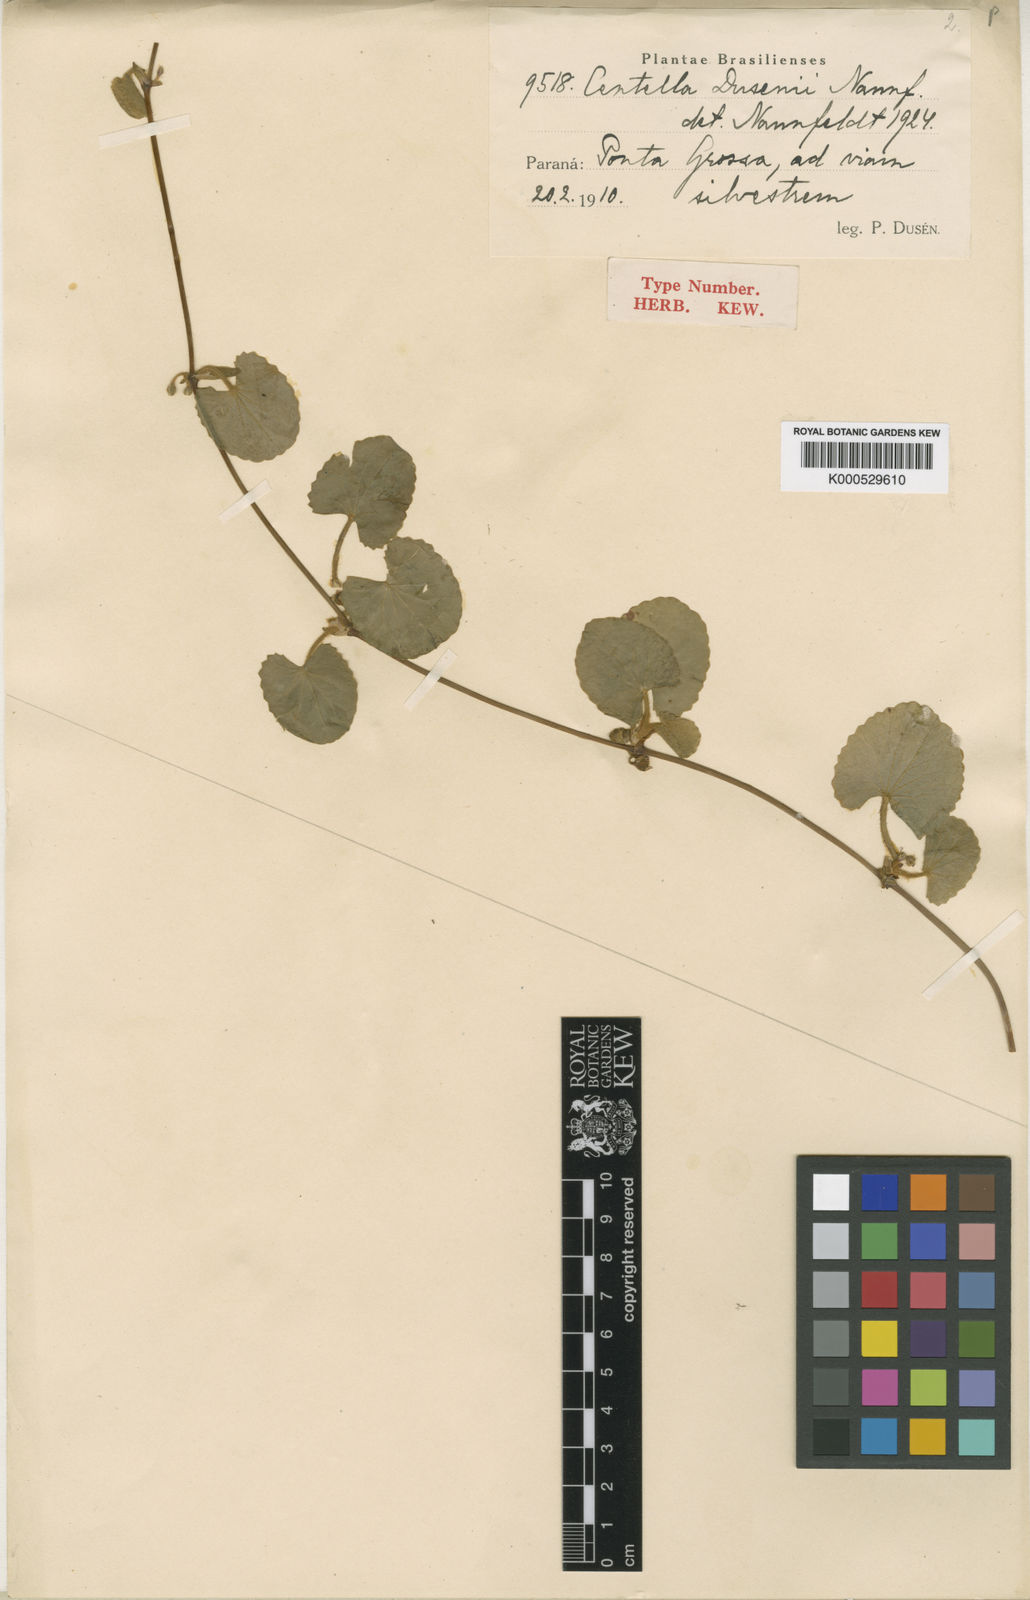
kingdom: Plantae
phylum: Tracheophyta
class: Magnoliopsida
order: Apiales
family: Apiaceae
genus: Centella
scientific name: Centella erecta
